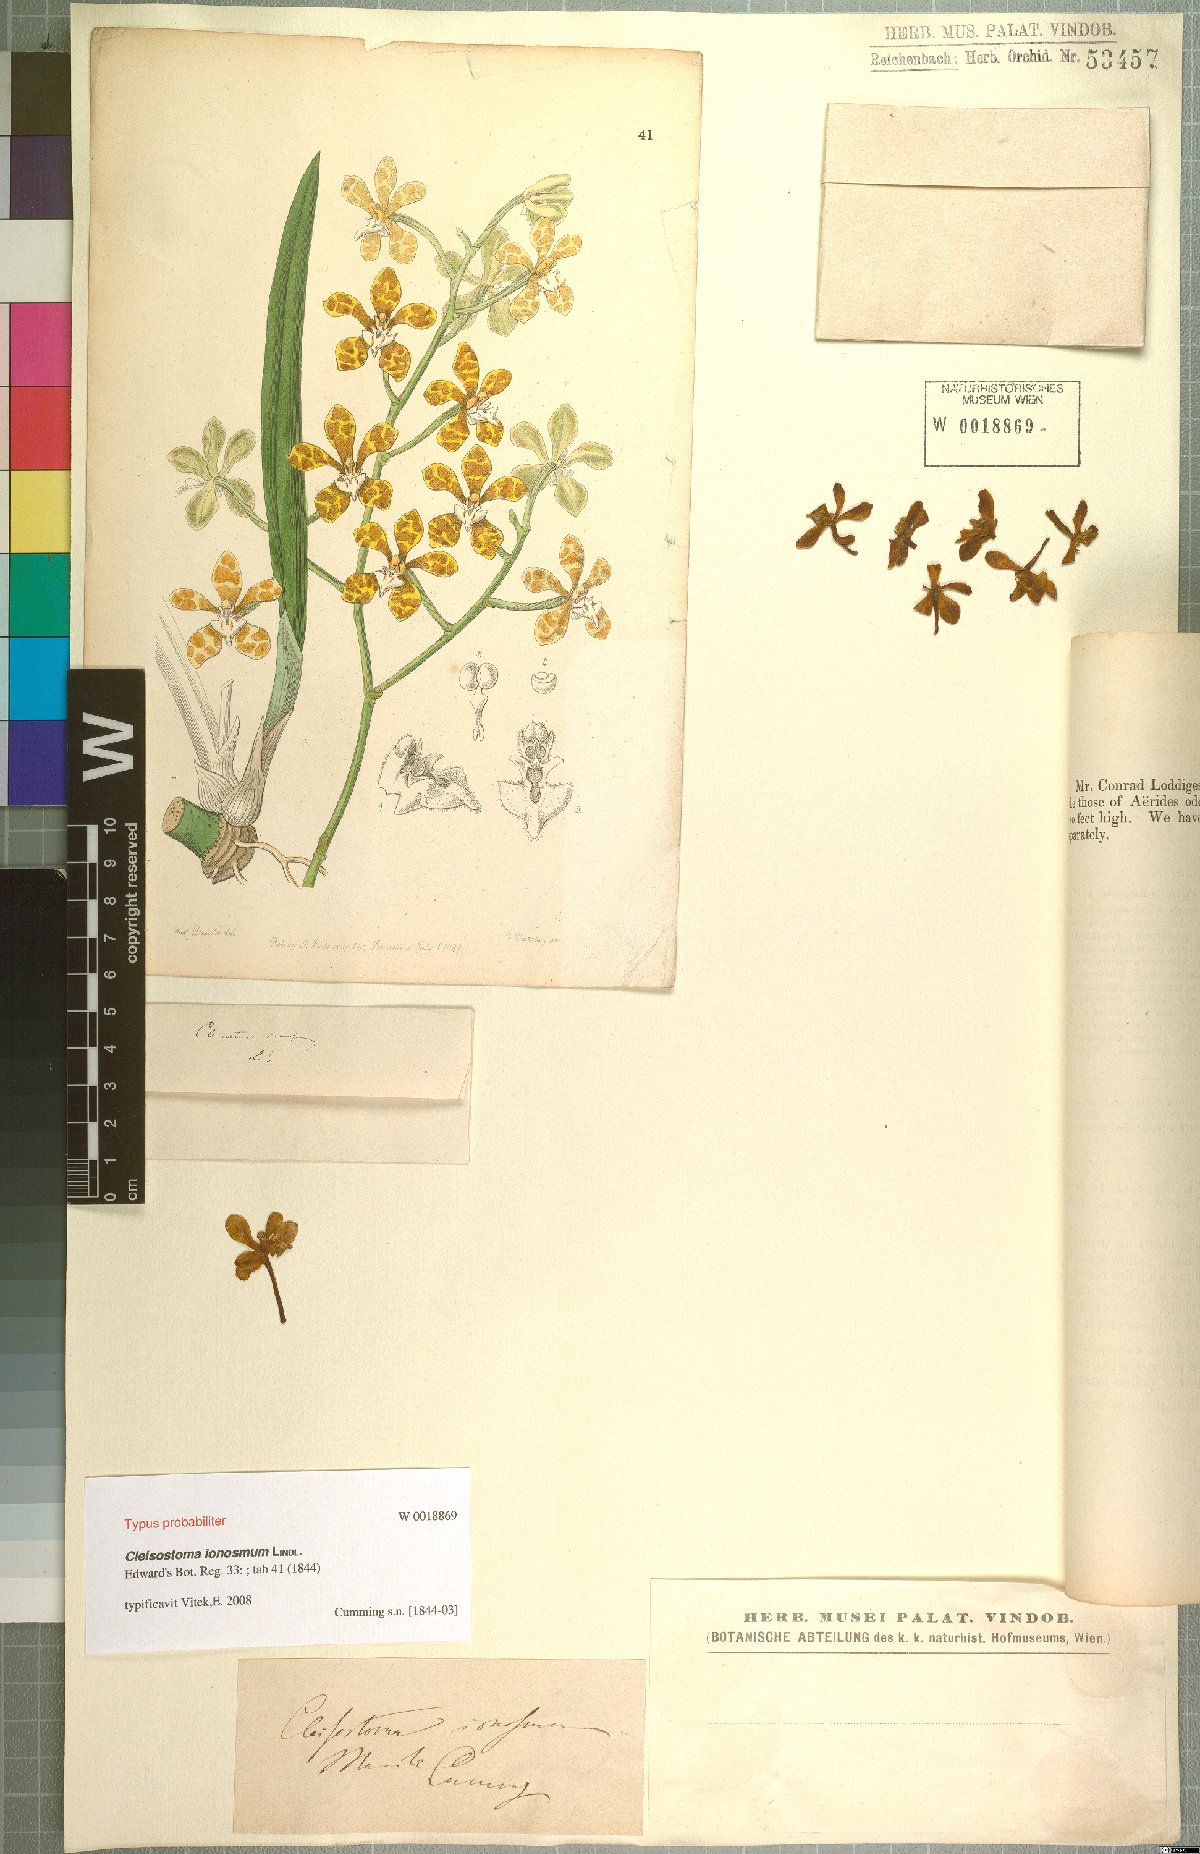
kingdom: Plantae
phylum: Tracheophyta
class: Liliopsida
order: Asparagales
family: Orchidaceae
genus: Trichoglottis
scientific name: Trichoglottis ionosma
